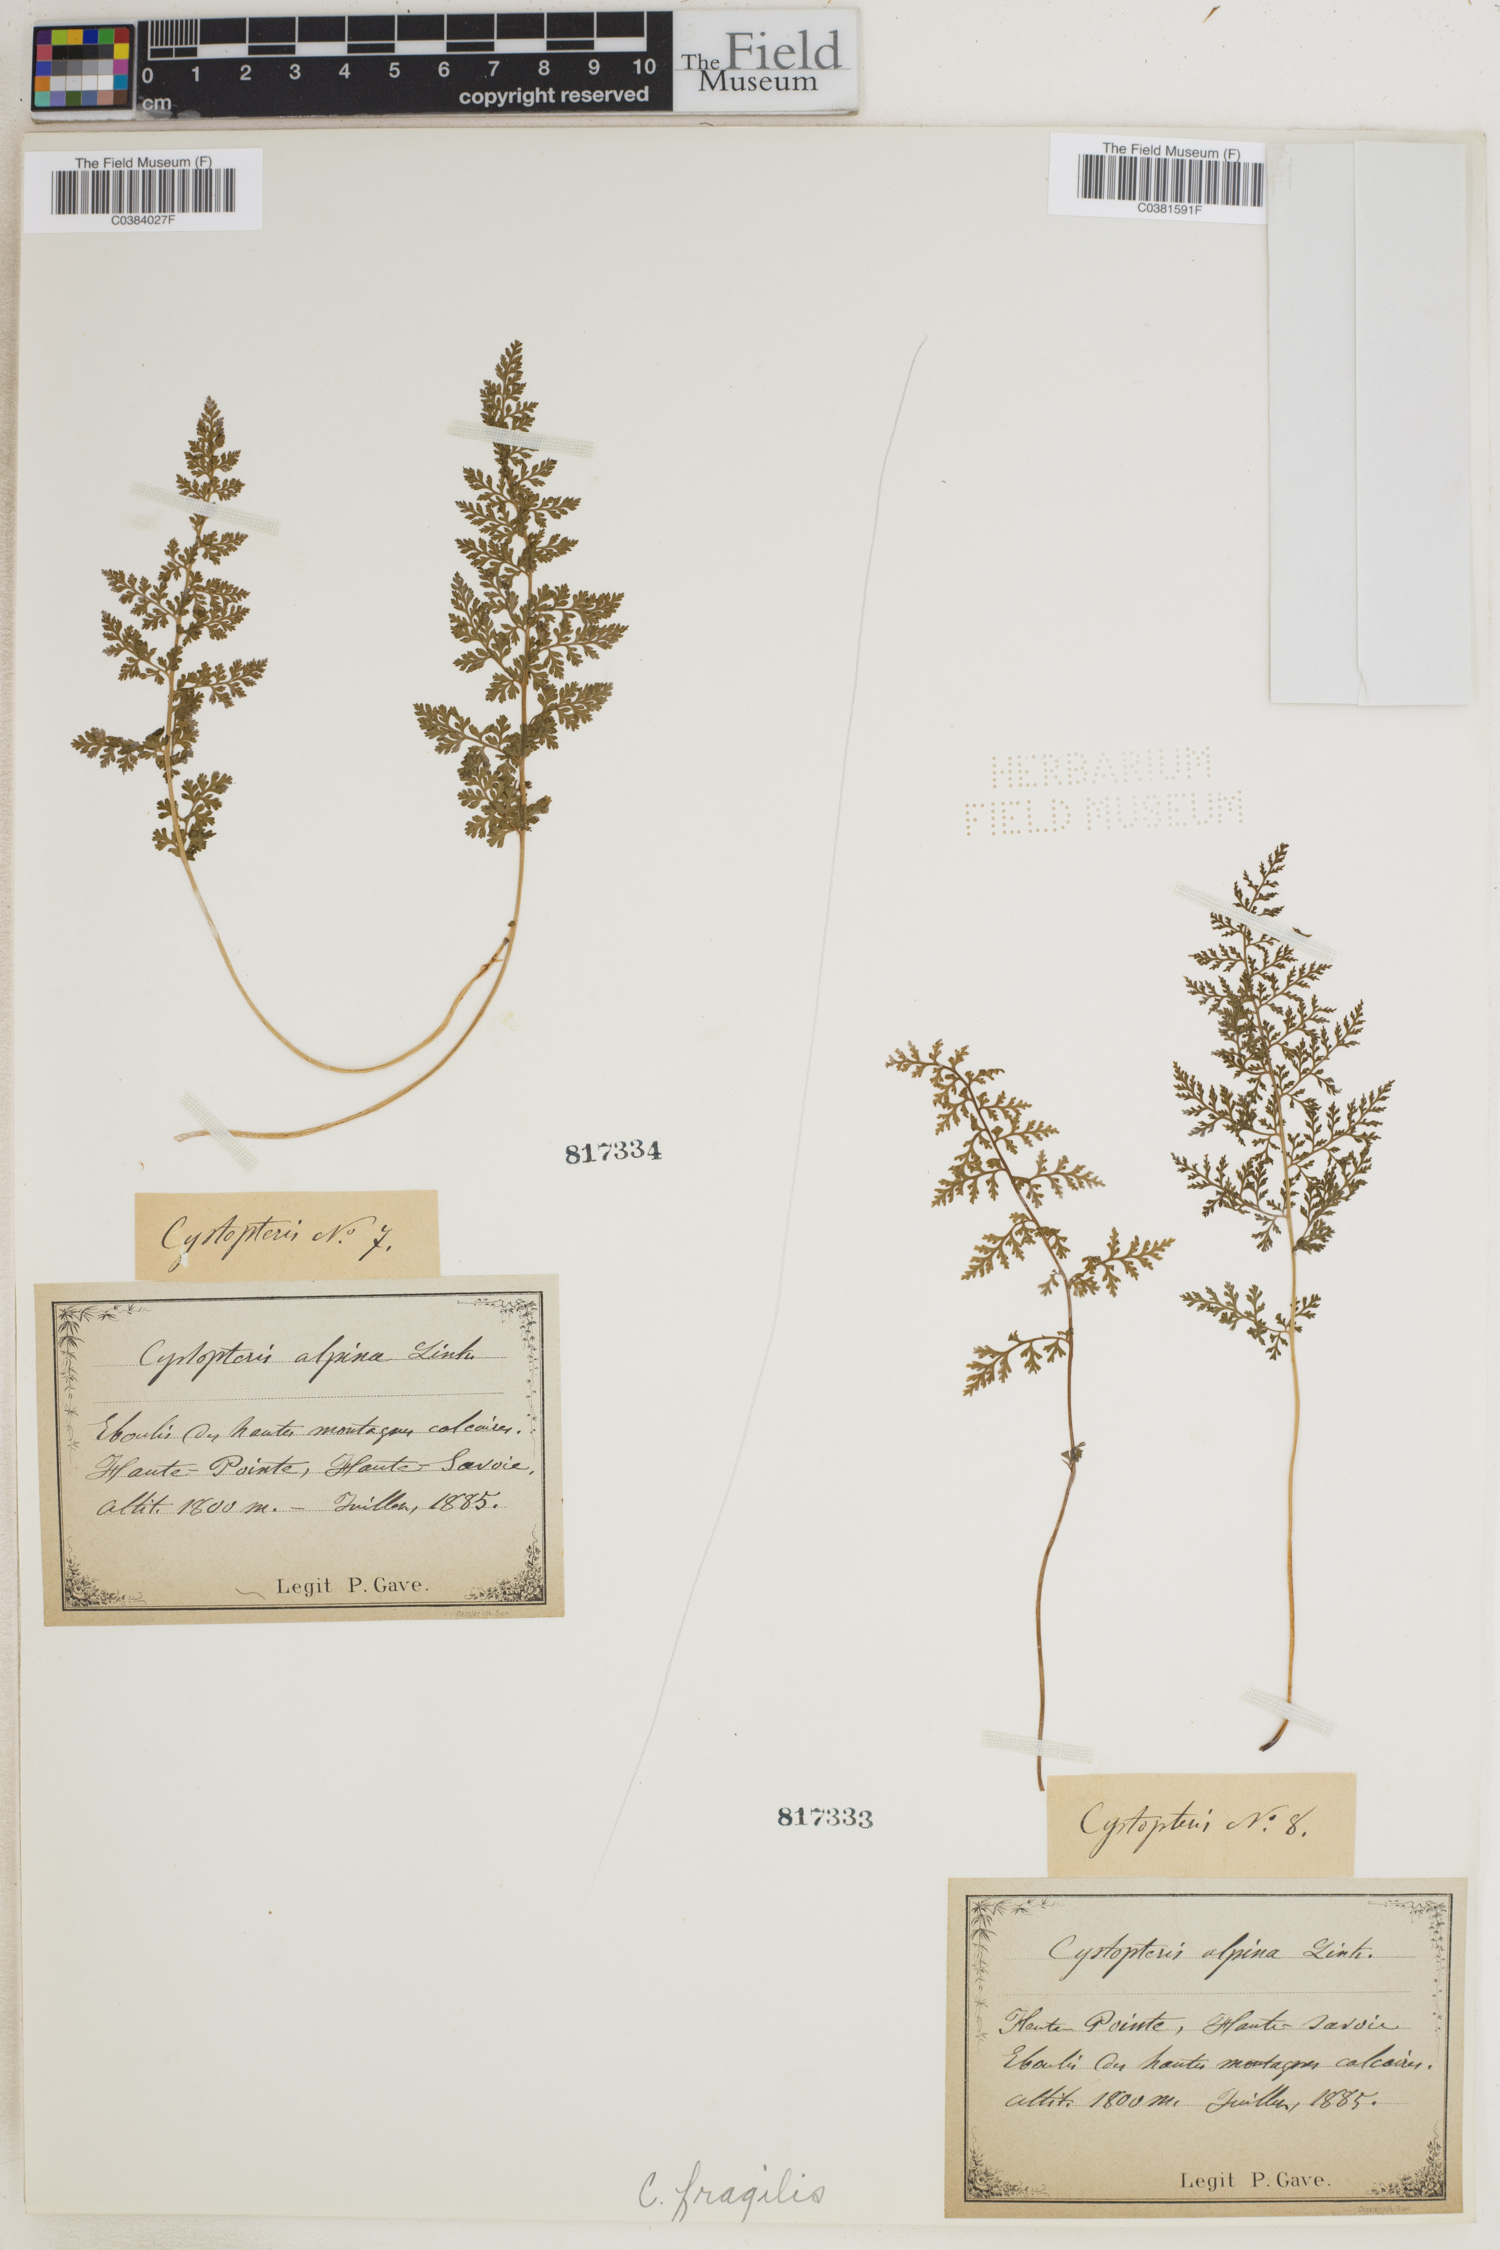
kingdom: Plantae
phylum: Tracheophyta
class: Polypodiopsida
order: Polypodiales
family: Cystopteridaceae
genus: Cystopteris
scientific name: Cystopteris fragilis
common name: Brittle bladder fern
